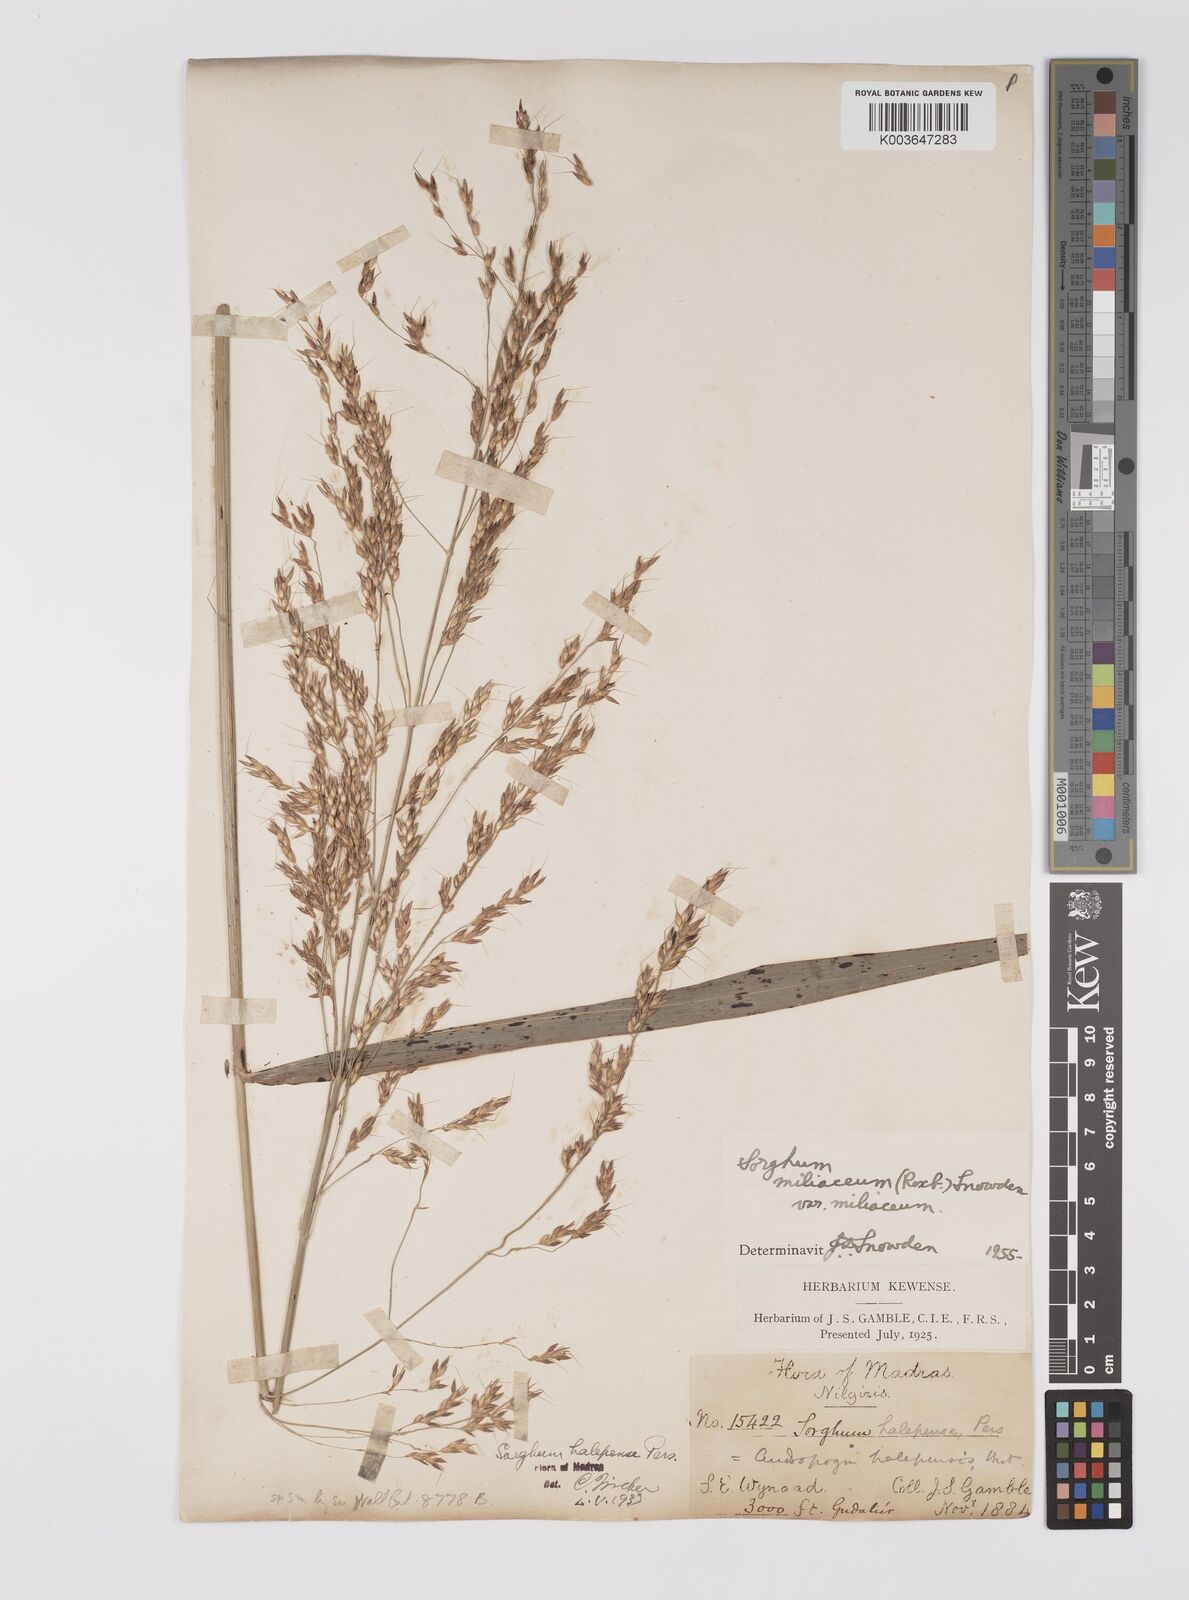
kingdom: Plantae
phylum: Tracheophyta
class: Liliopsida
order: Poales
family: Poaceae
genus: Sorghum
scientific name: Sorghum halepense
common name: Johnson-grass
